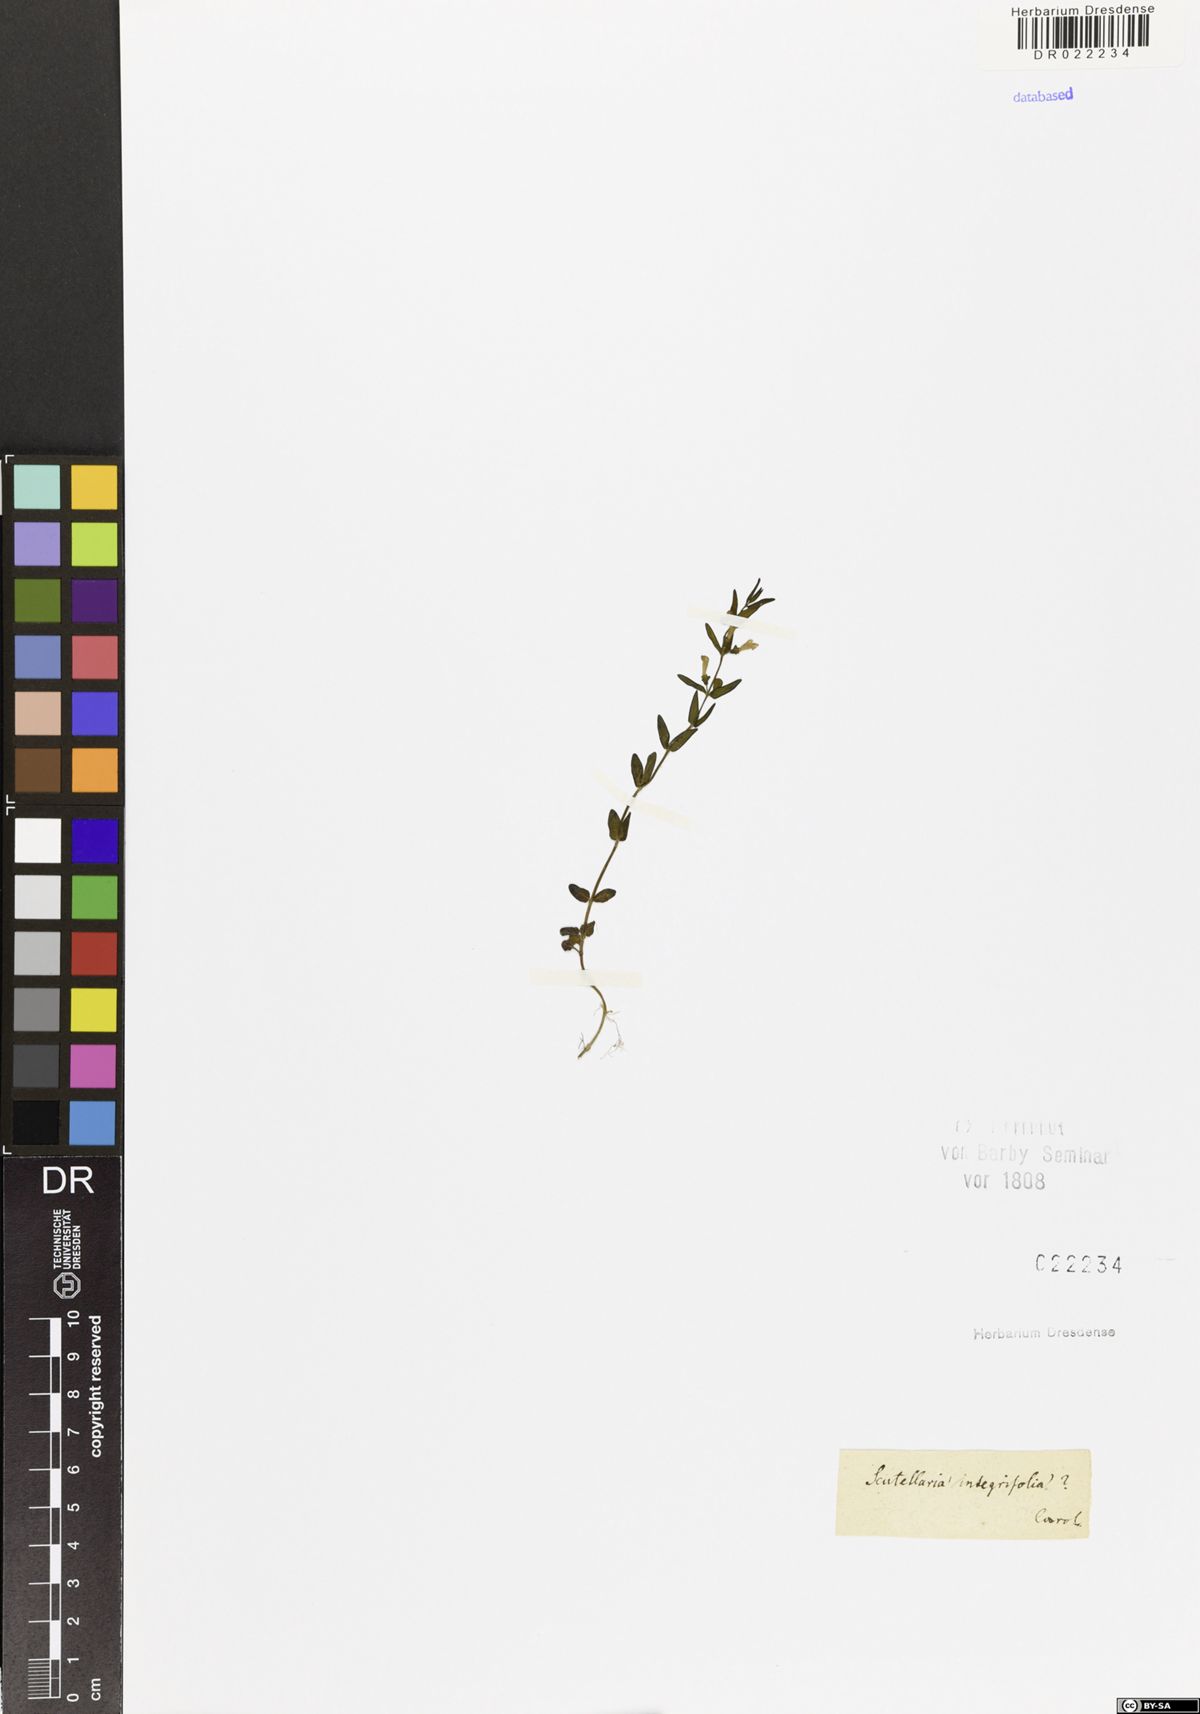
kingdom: Plantae
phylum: Tracheophyta
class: Magnoliopsida
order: Lamiales
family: Lamiaceae
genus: Scutellaria
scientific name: Scutellaria nervosa
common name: Bottomland skullcap
